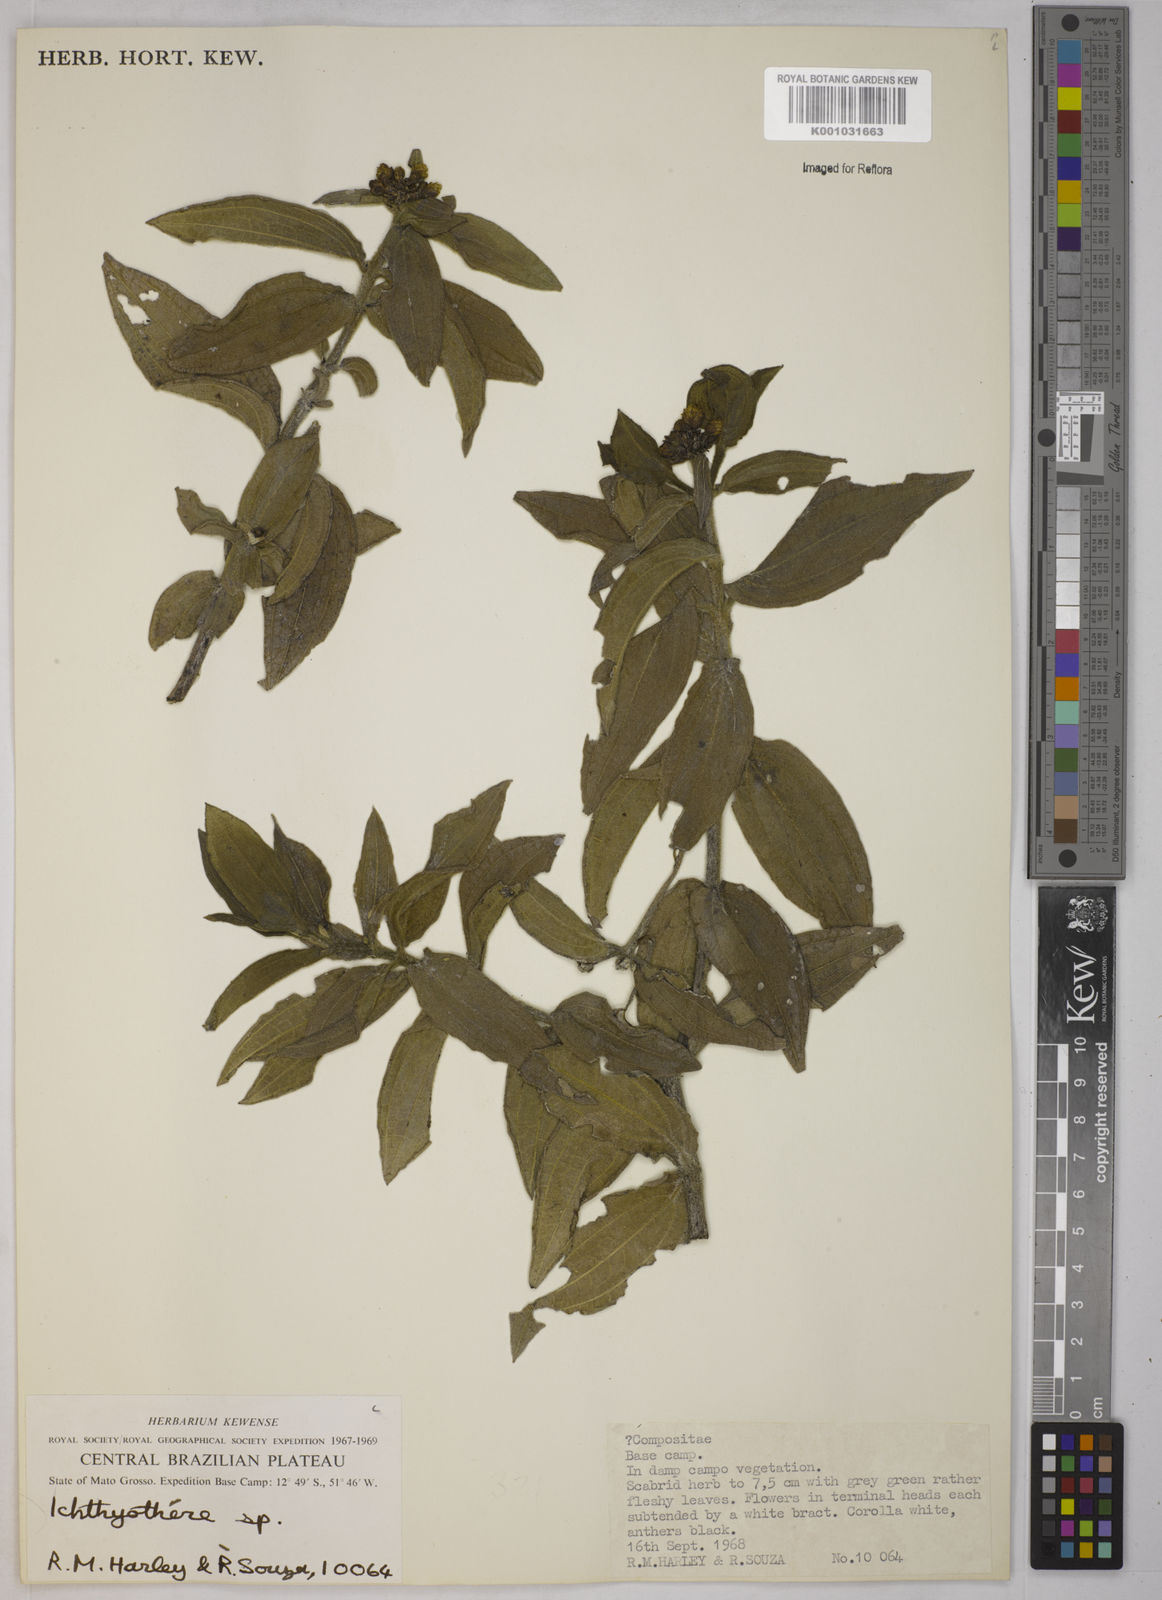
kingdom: Plantae
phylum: Tracheophyta
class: Magnoliopsida
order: Asterales
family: Asteraceae
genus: Ichthyothere
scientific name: Ichthyothere
